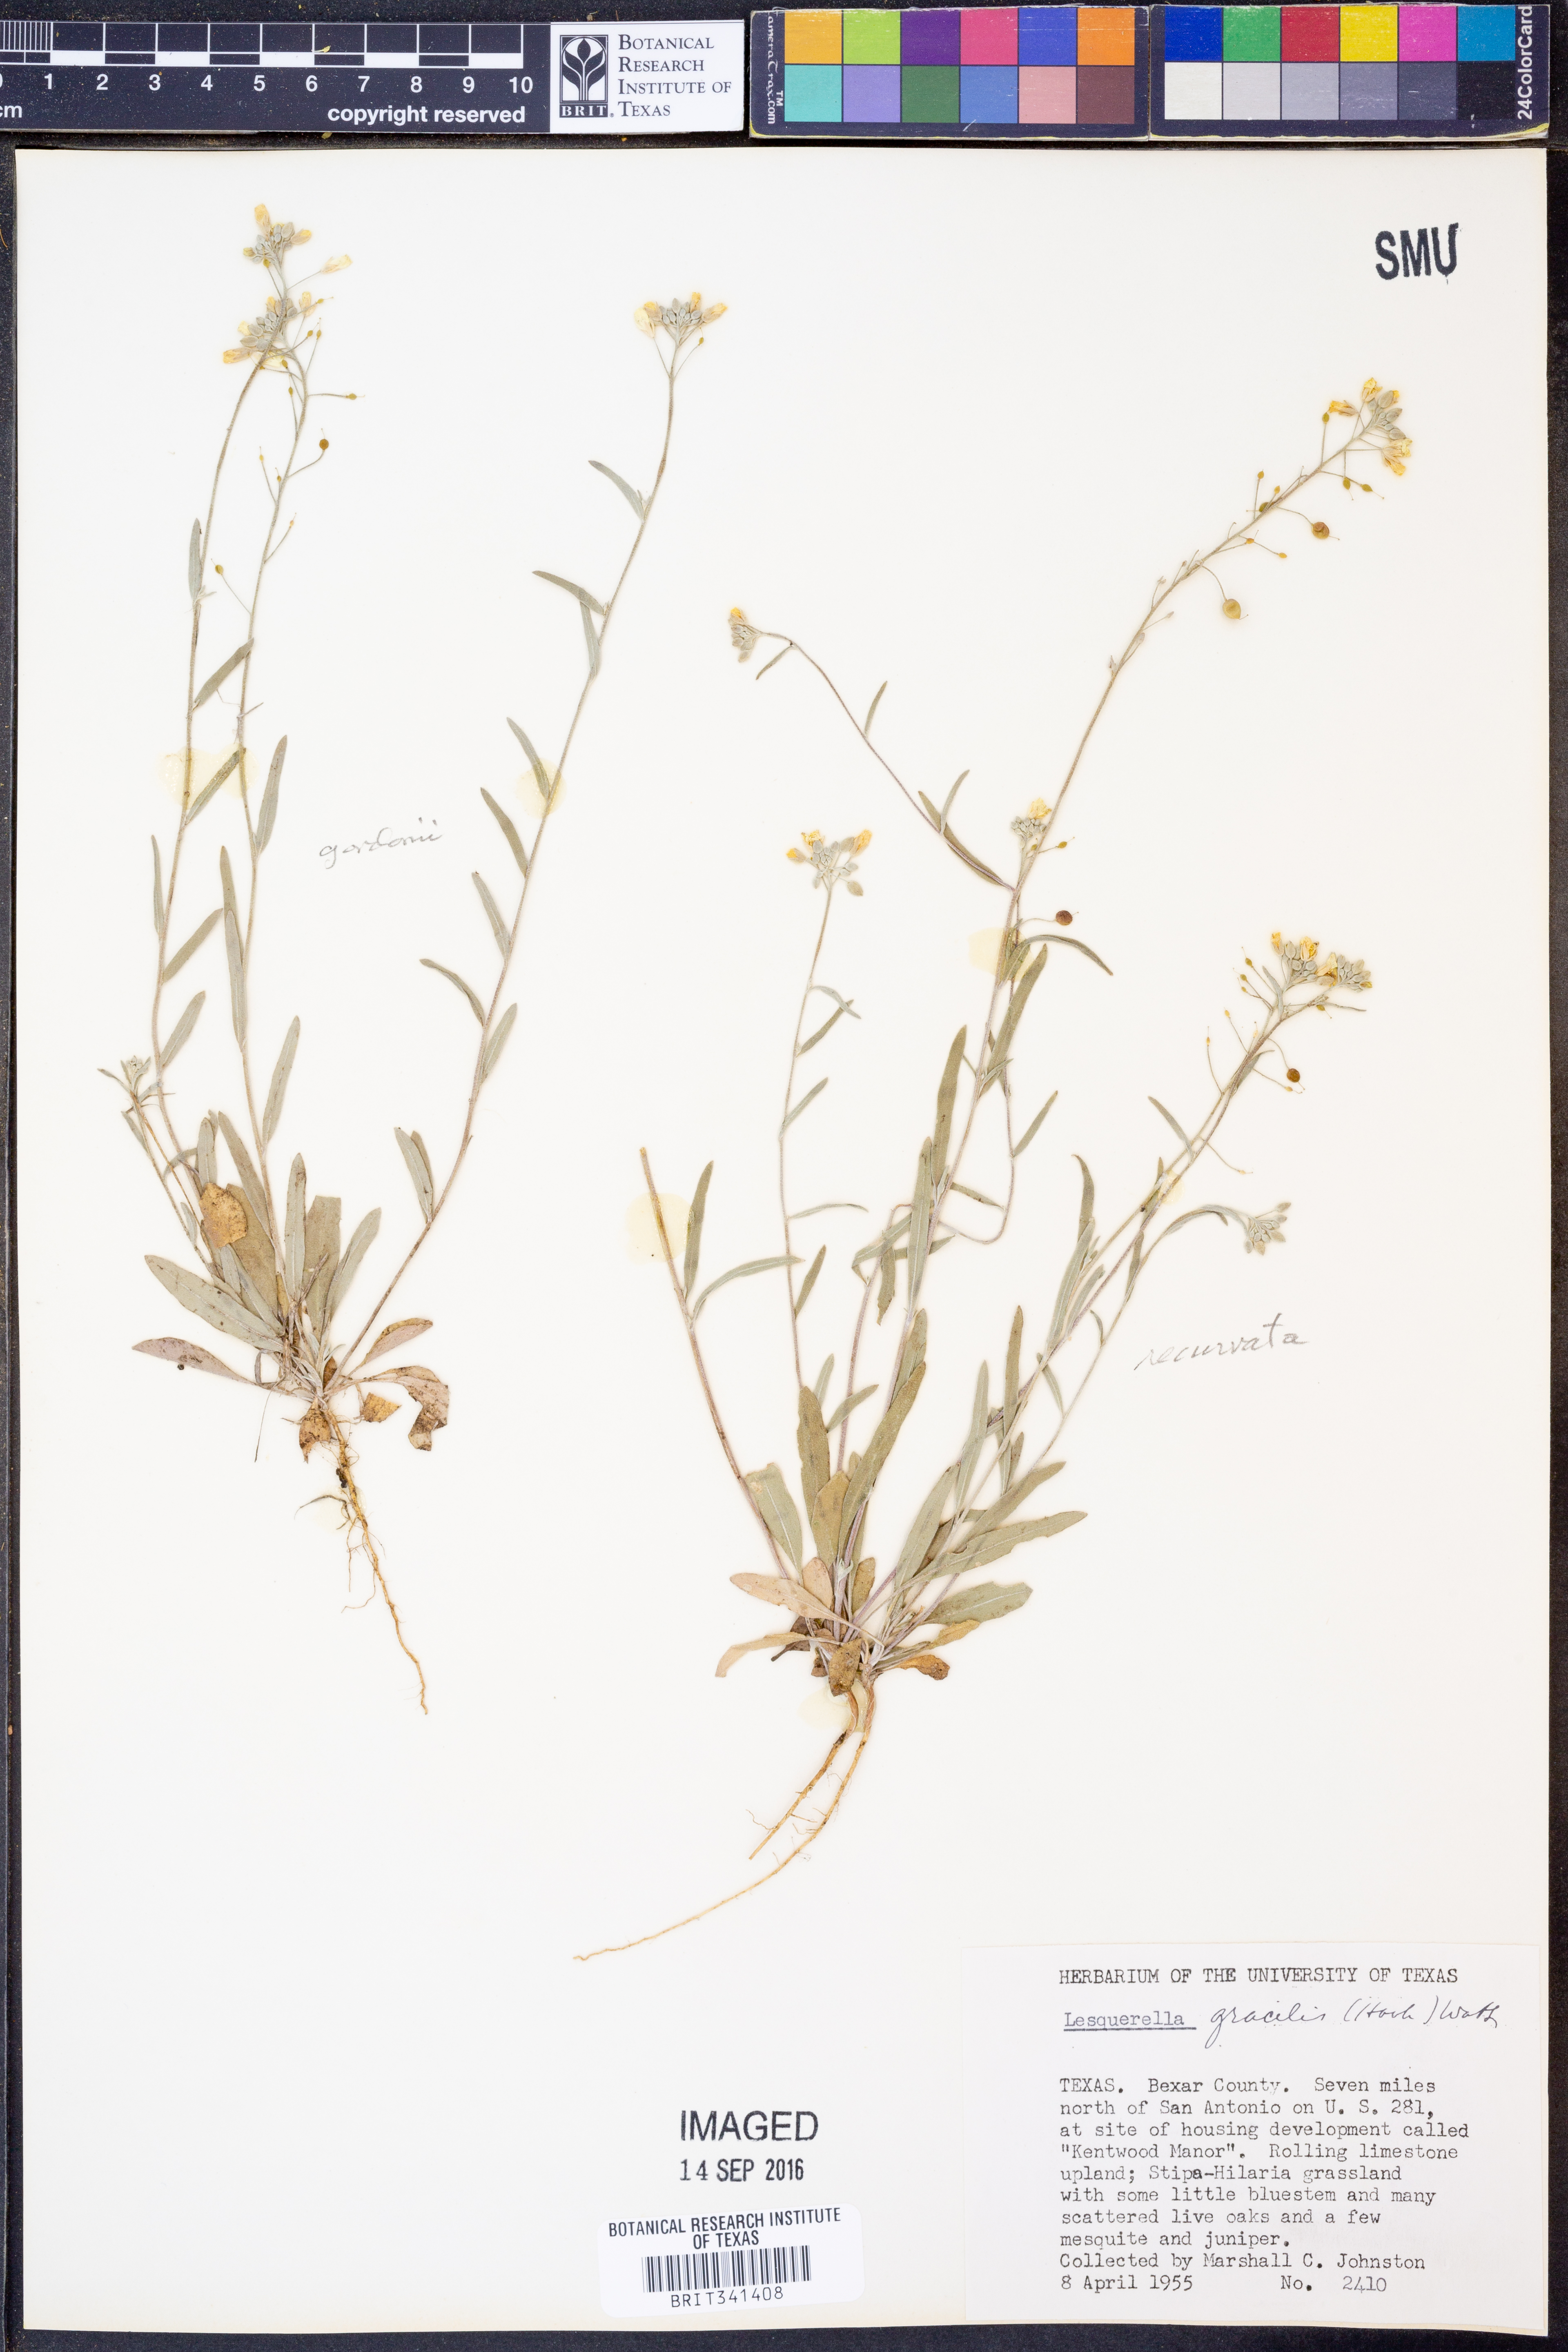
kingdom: Plantae
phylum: Tracheophyta
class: Magnoliopsida
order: Brassicales
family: Brassicaceae
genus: Physaria
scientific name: Physaria gracilis
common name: Spreading bladderpod
